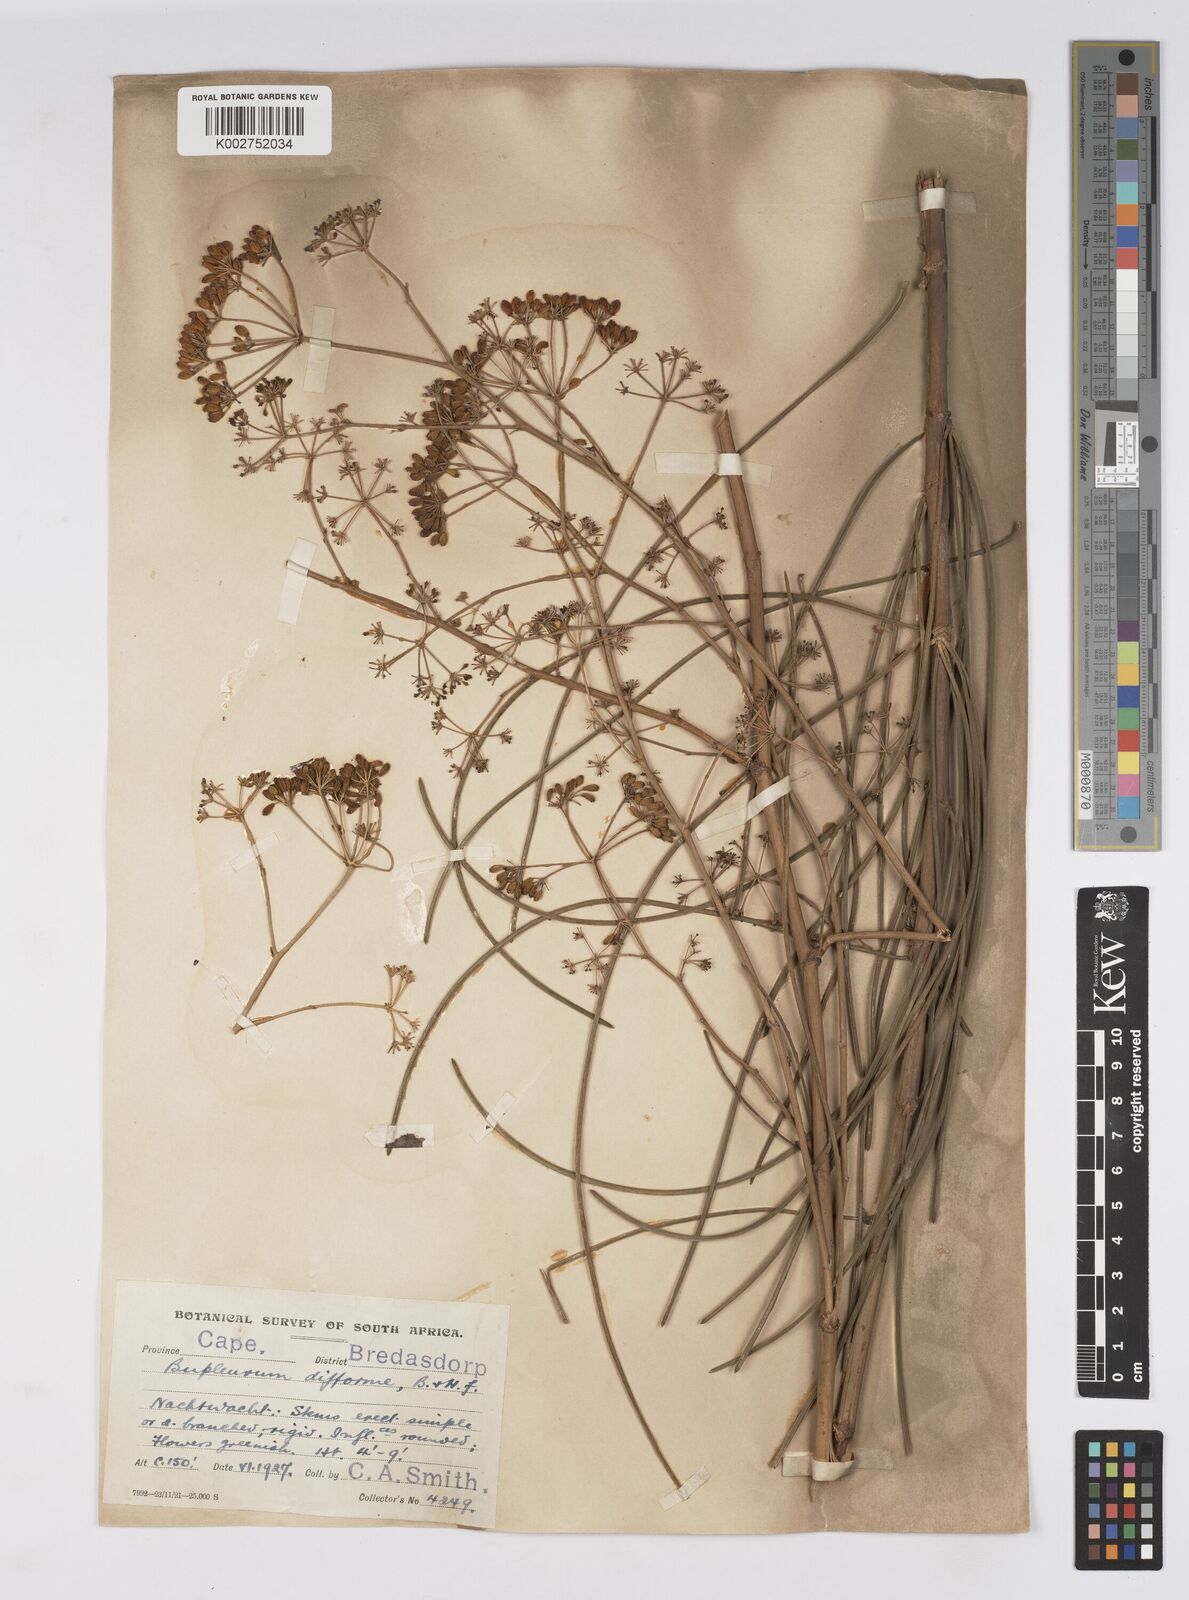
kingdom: Plantae
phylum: Tracheophyta
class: Magnoliopsida
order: Apiales
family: Apiaceae
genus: Anginon
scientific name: Anginon difforme
